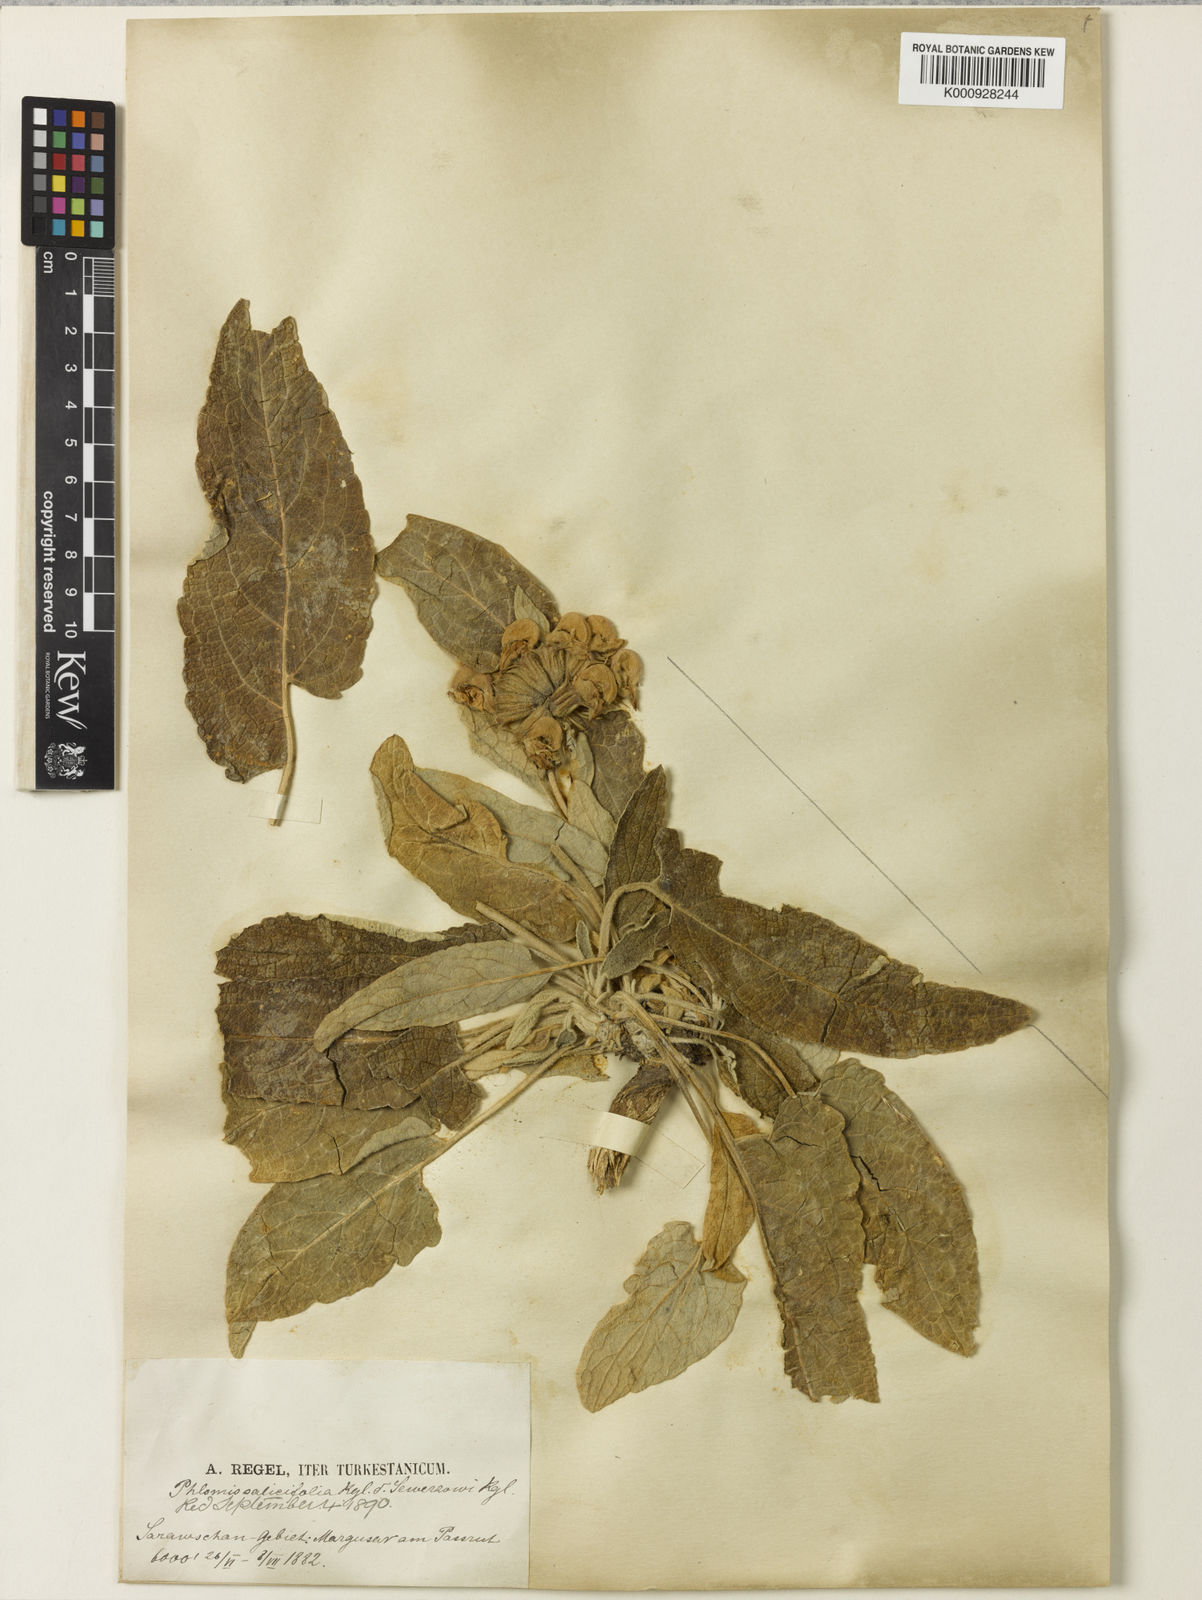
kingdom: Plantae
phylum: Tracheophyta
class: Magnoliopsida
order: Lamiales
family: Lamiaceae
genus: Phlomis
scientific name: Phlomis sewerzowii
